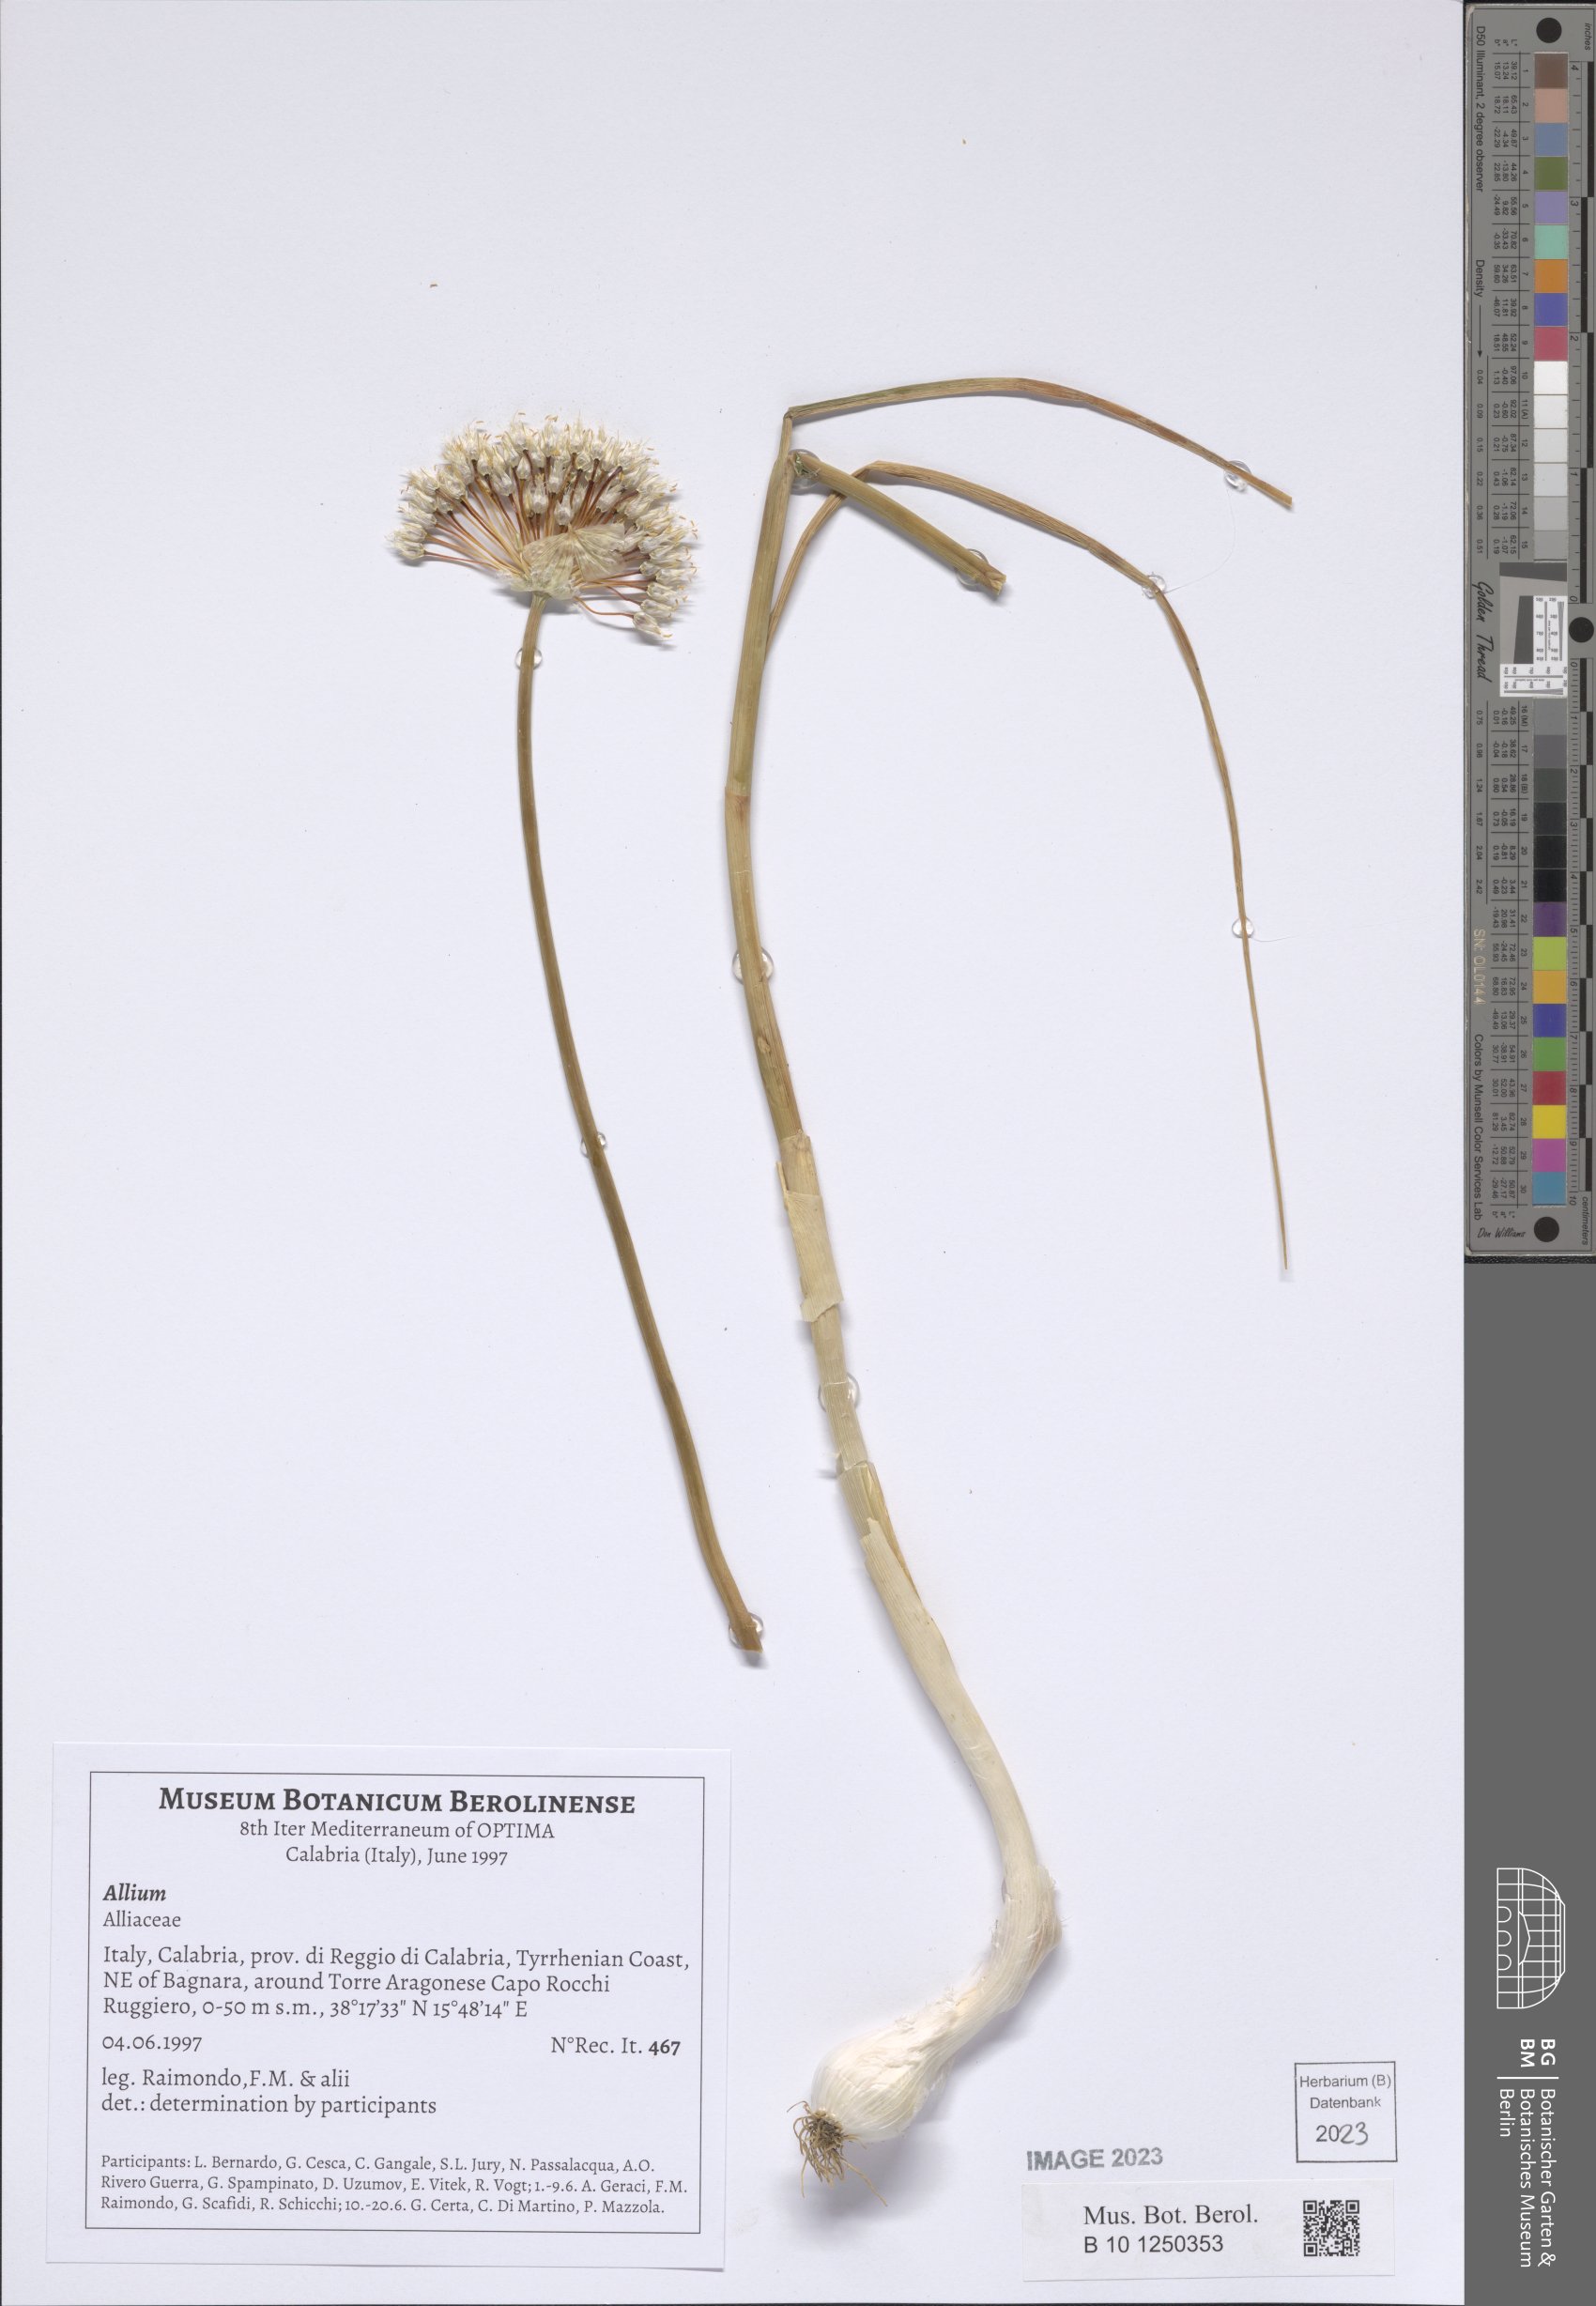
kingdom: Plantae
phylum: Tracheophyta
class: Liliopsida
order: Asparagales
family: Amaryllidaceae
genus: Allium
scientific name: Allium
